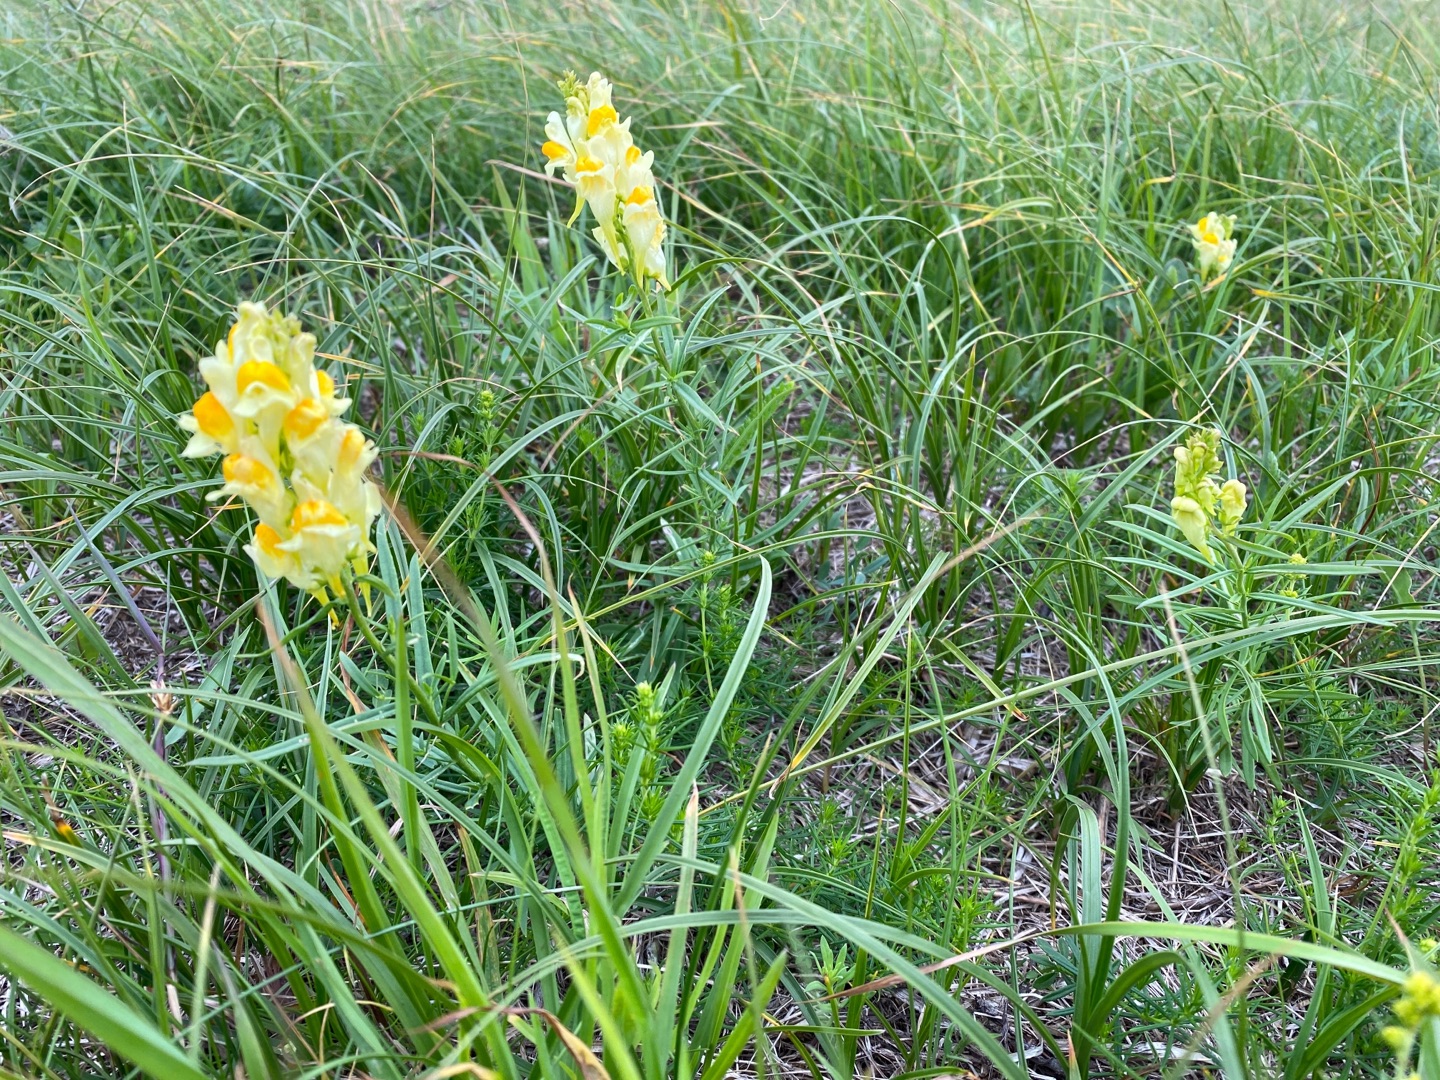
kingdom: Plantae
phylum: Tracheophyta
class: Magnoliopsida
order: Lamiales
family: Plantaginaceae
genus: Linaria
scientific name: Linaria vulgaris
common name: Almindelig torskemund
